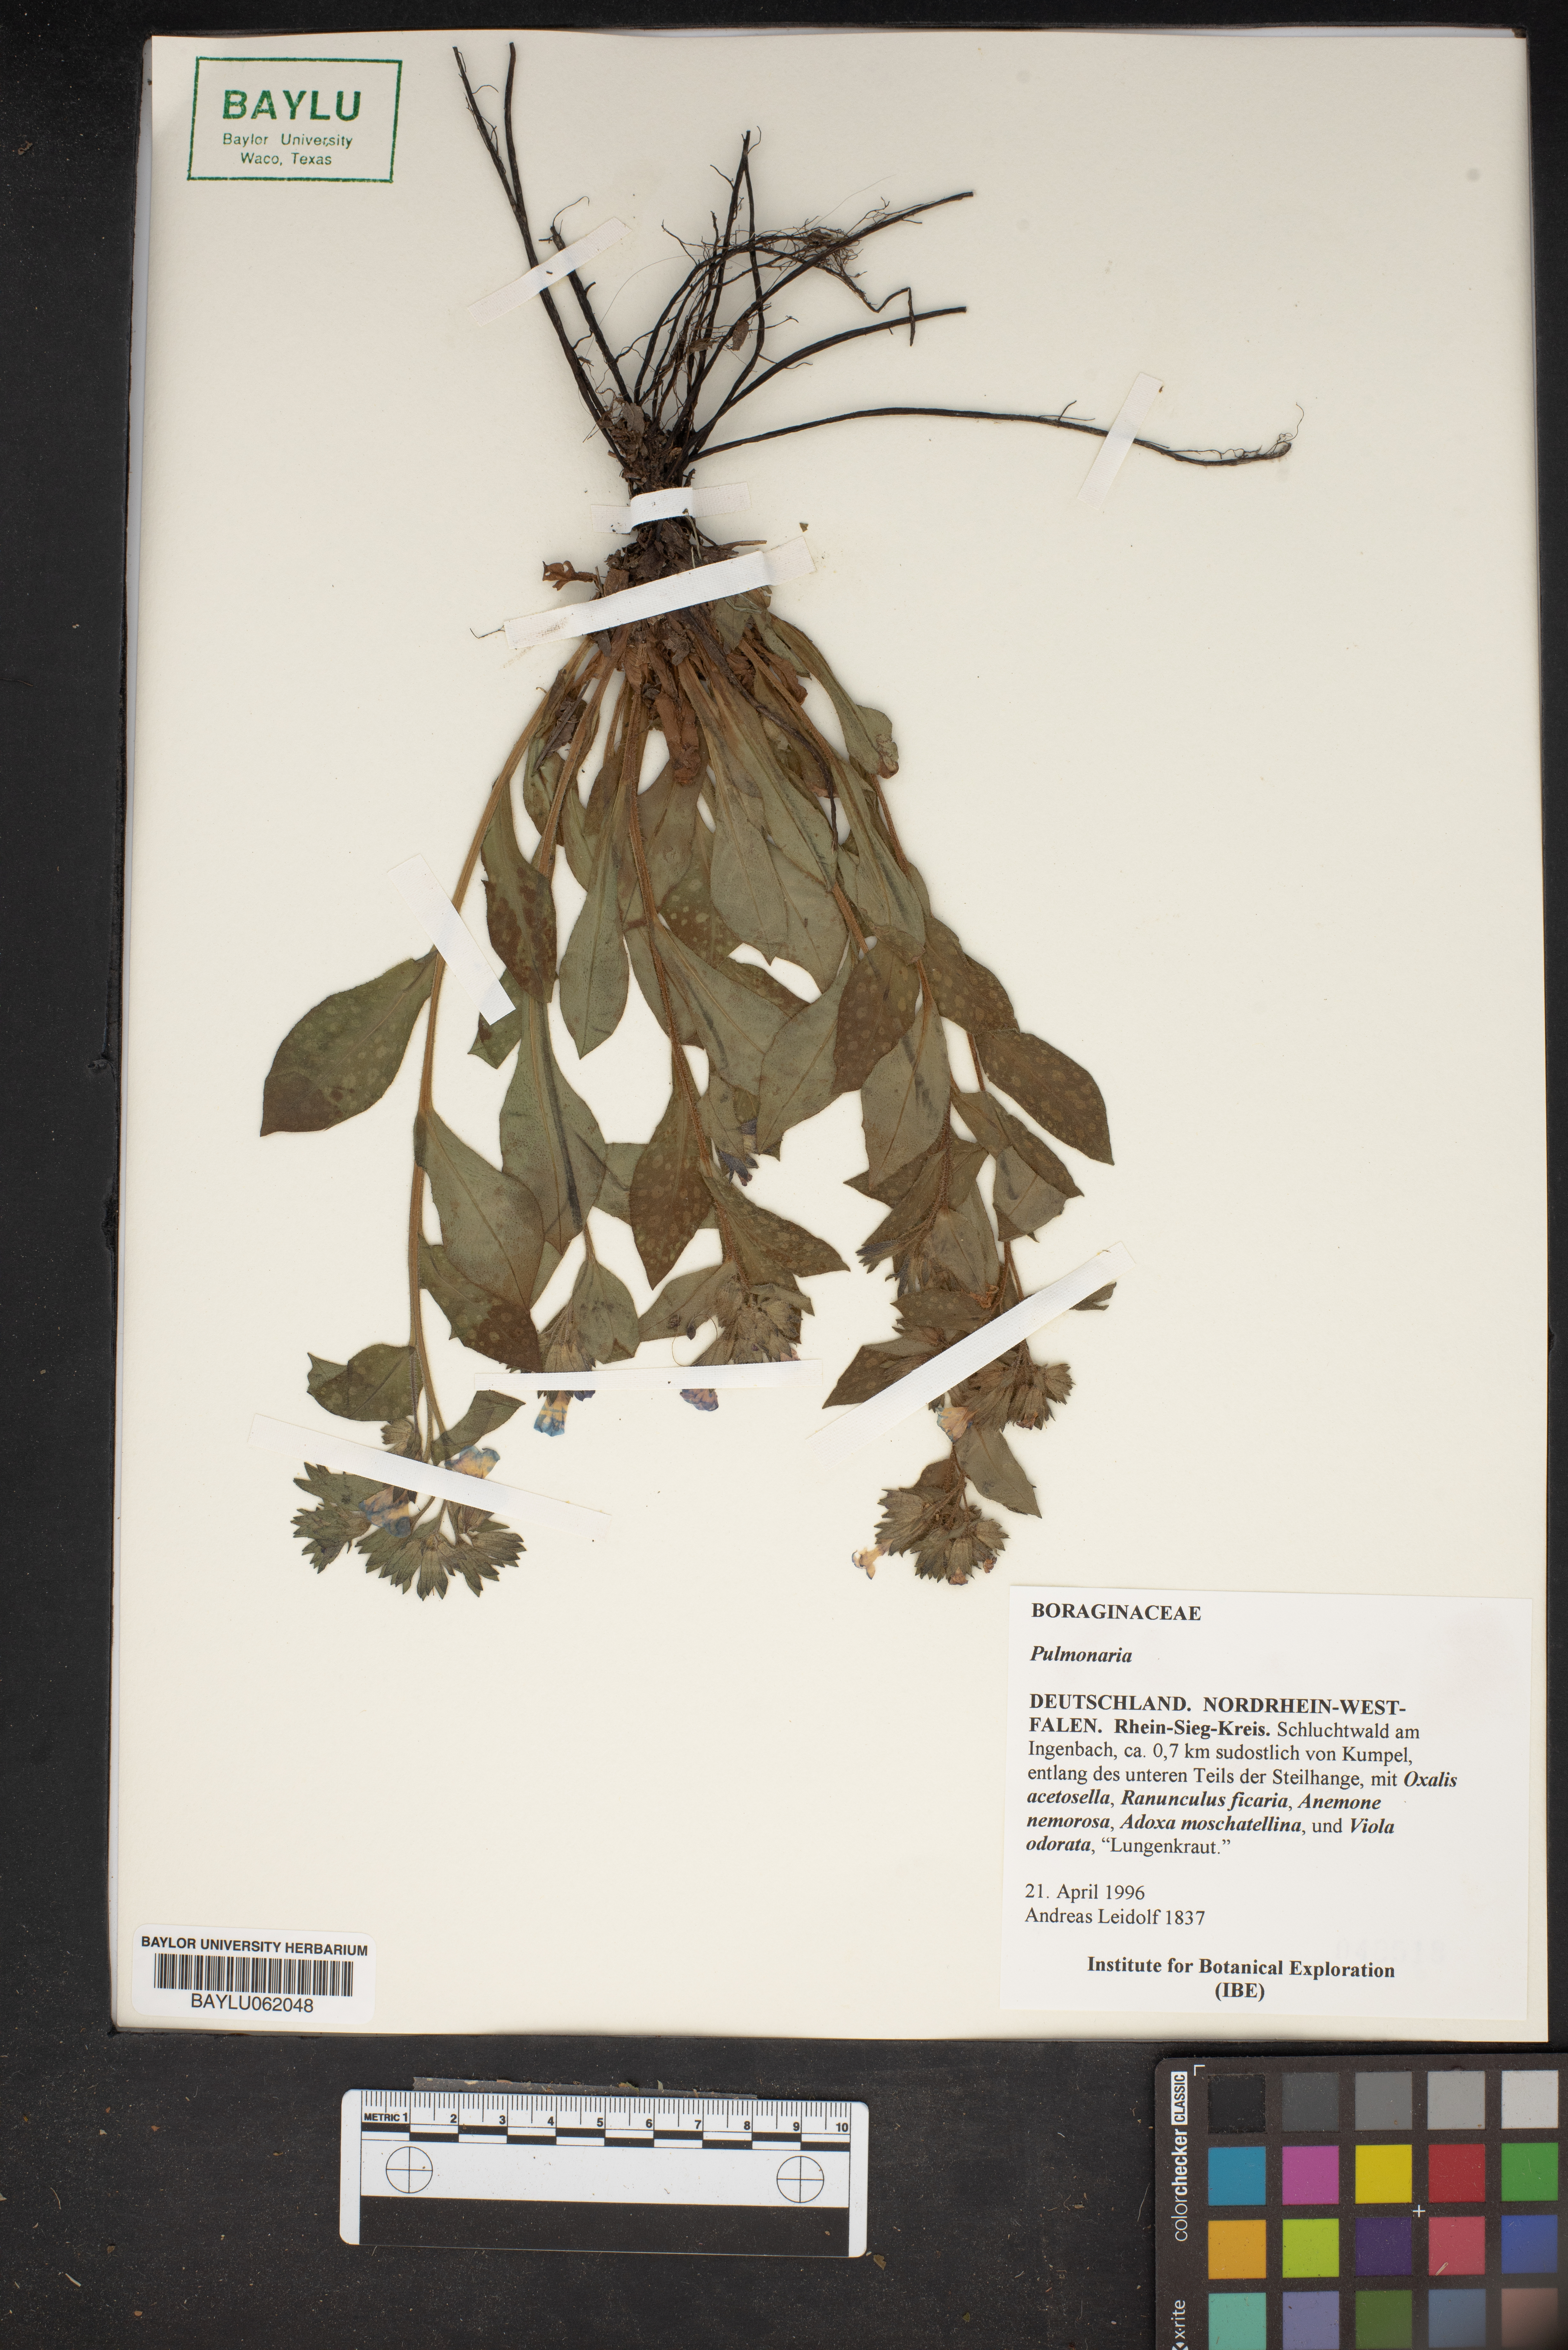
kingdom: Plantae
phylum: Tracheophyta
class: Magnoliopsida
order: Boraginales
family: Boraginaceae
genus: Pulmonaria
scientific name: Pulmonaria
